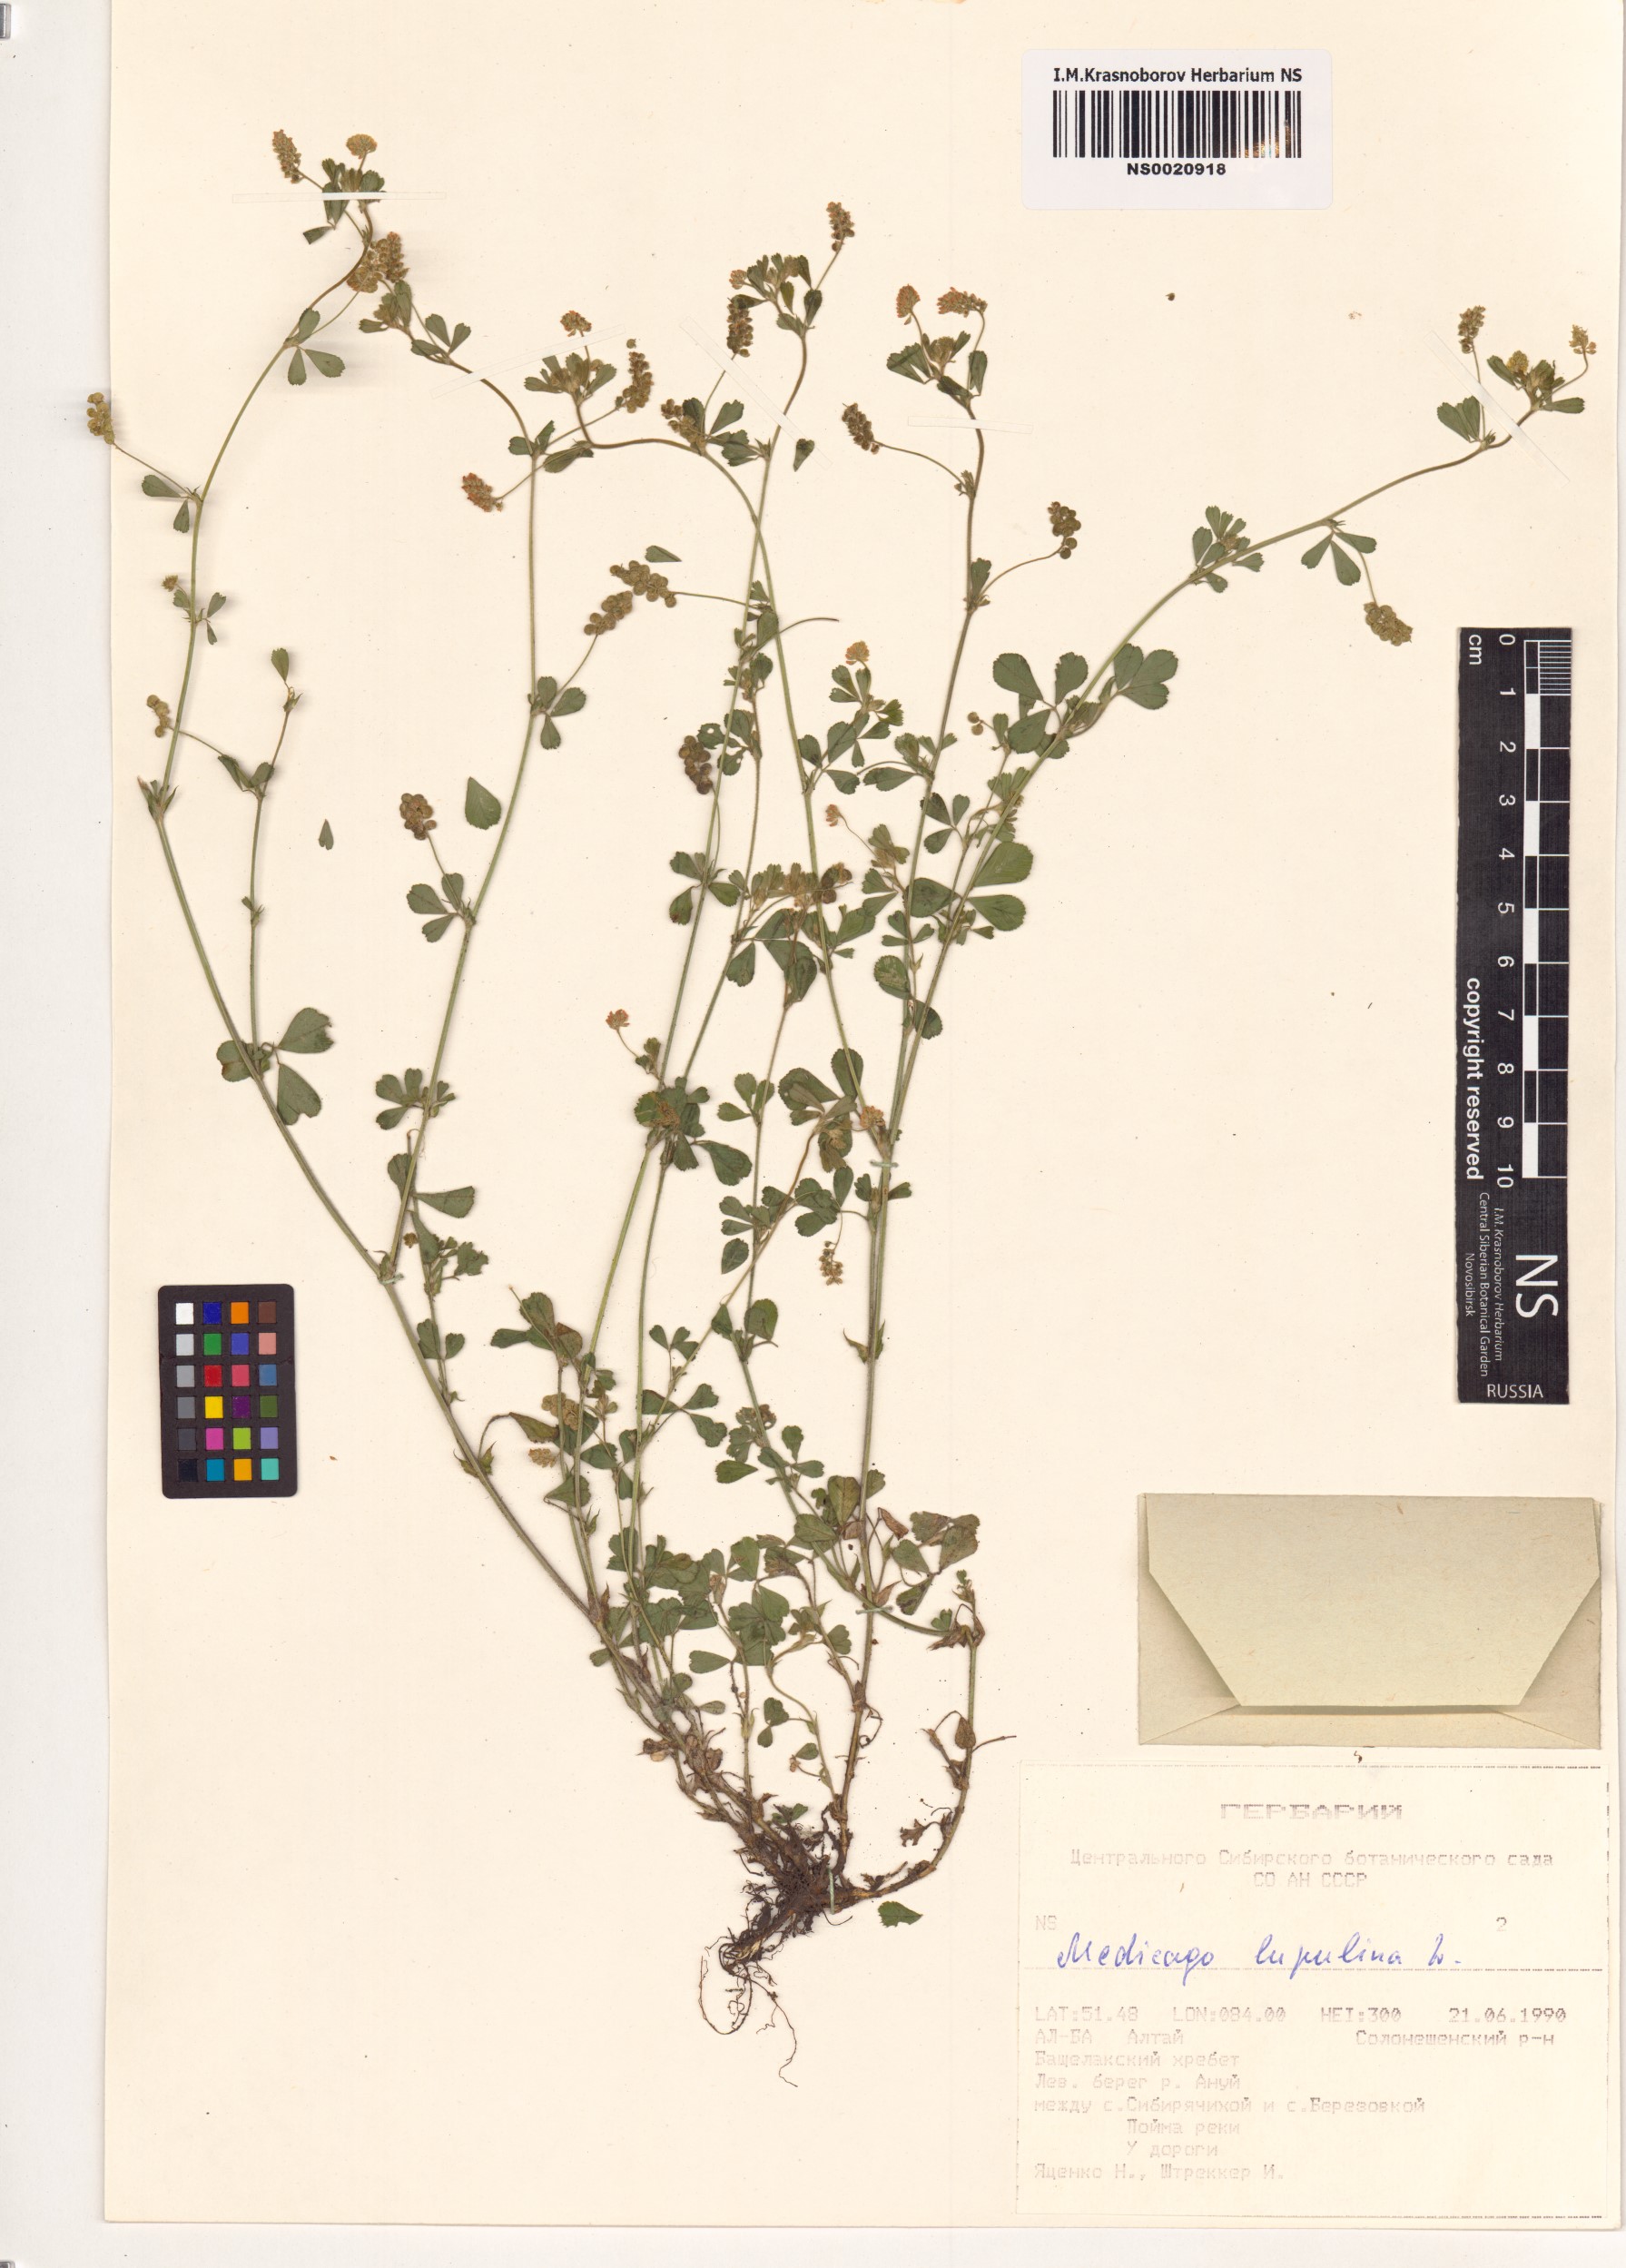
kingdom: Plantae
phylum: Tracheophyta
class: Magnoliopsida
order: Fabales
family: Fabaceae
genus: Medicago
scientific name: Medicago lupulina
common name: Black medick
